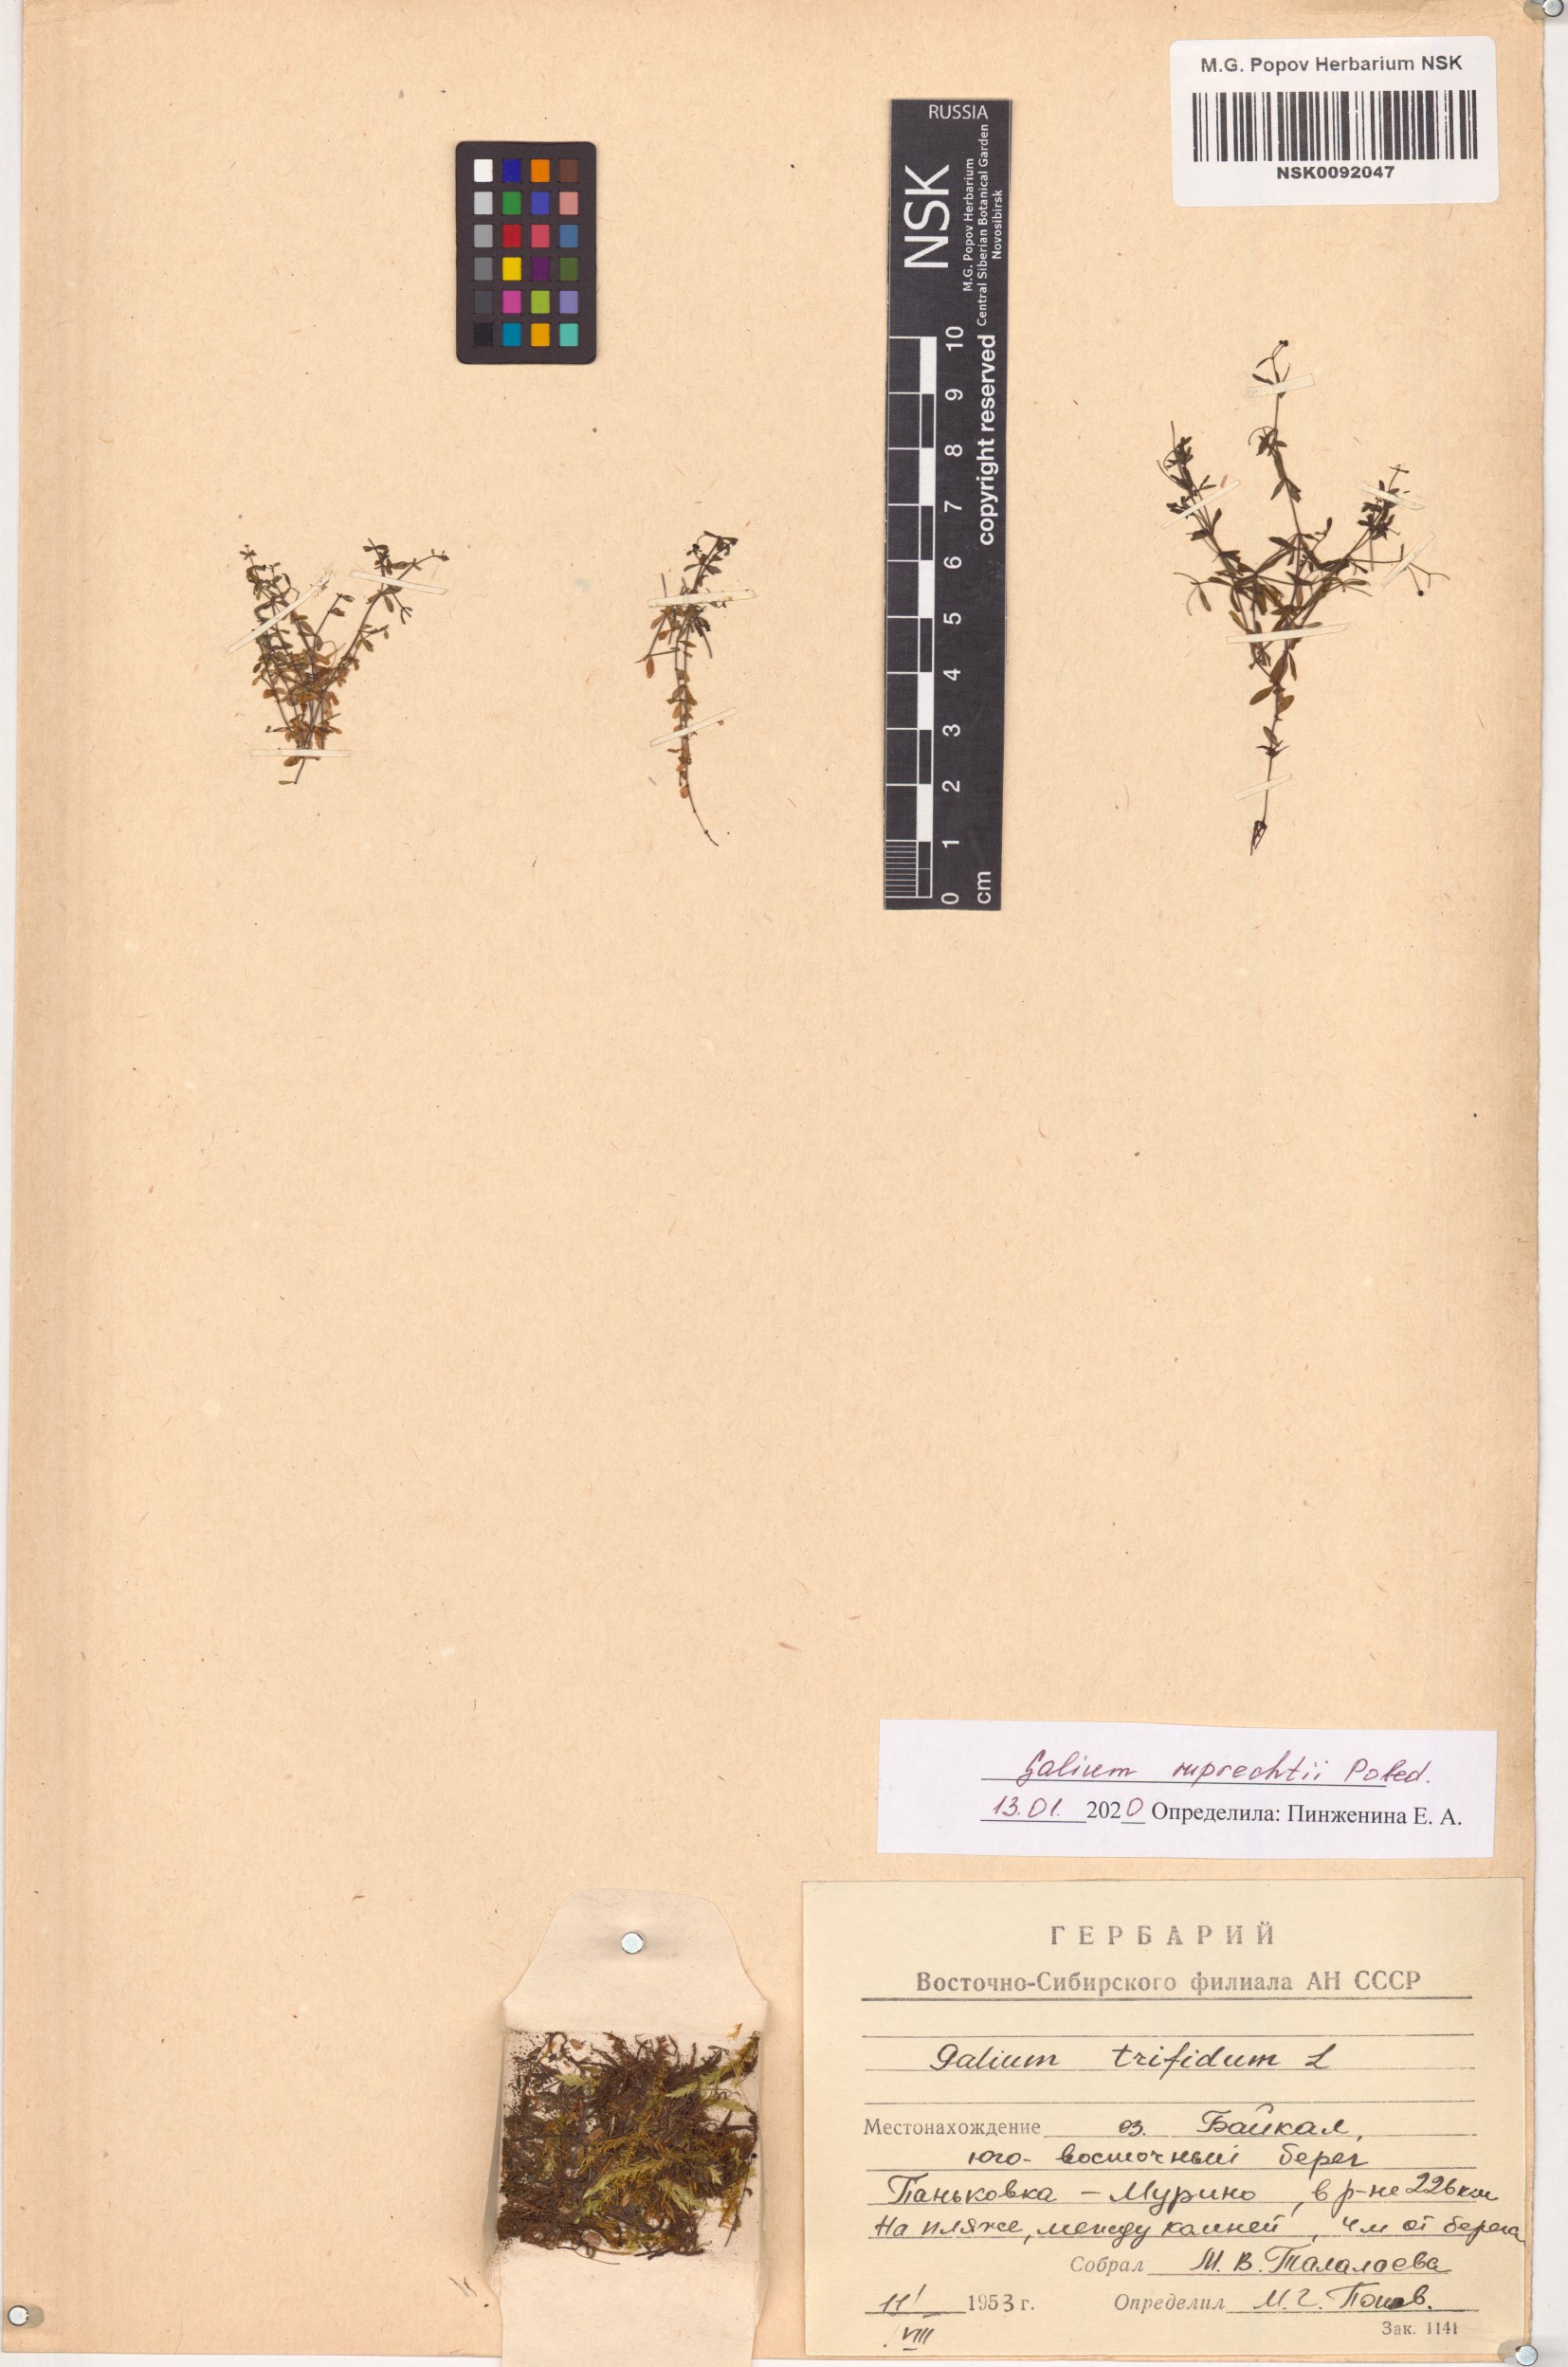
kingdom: Plantae
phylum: Tracheophyta
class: Magnoliopsida
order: Gentianales
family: Rubiaceae
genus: Galium
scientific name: Galium trifidum
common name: Small bedstraw
